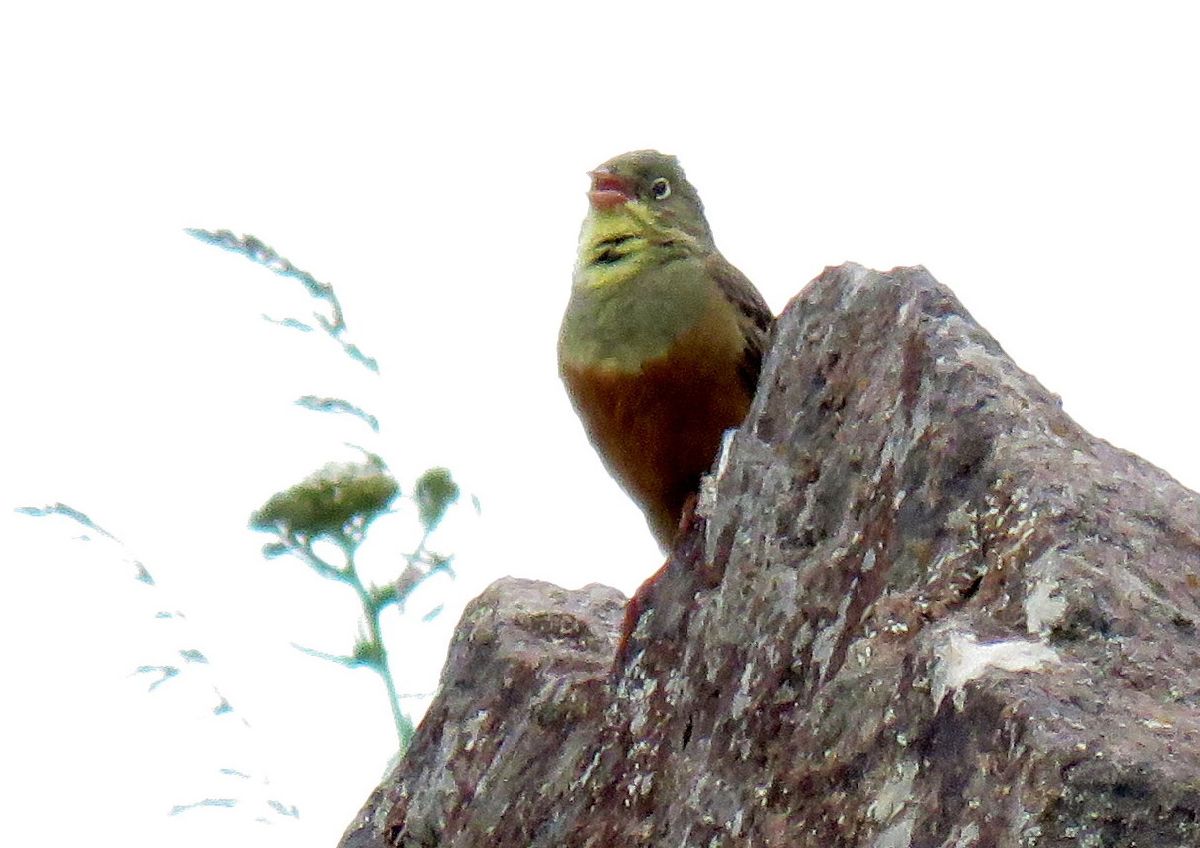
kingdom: Animalia
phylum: Chordata
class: Aves
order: Passeriformes
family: Emberizidae
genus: Emberiza
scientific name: Emberiza hortulana
